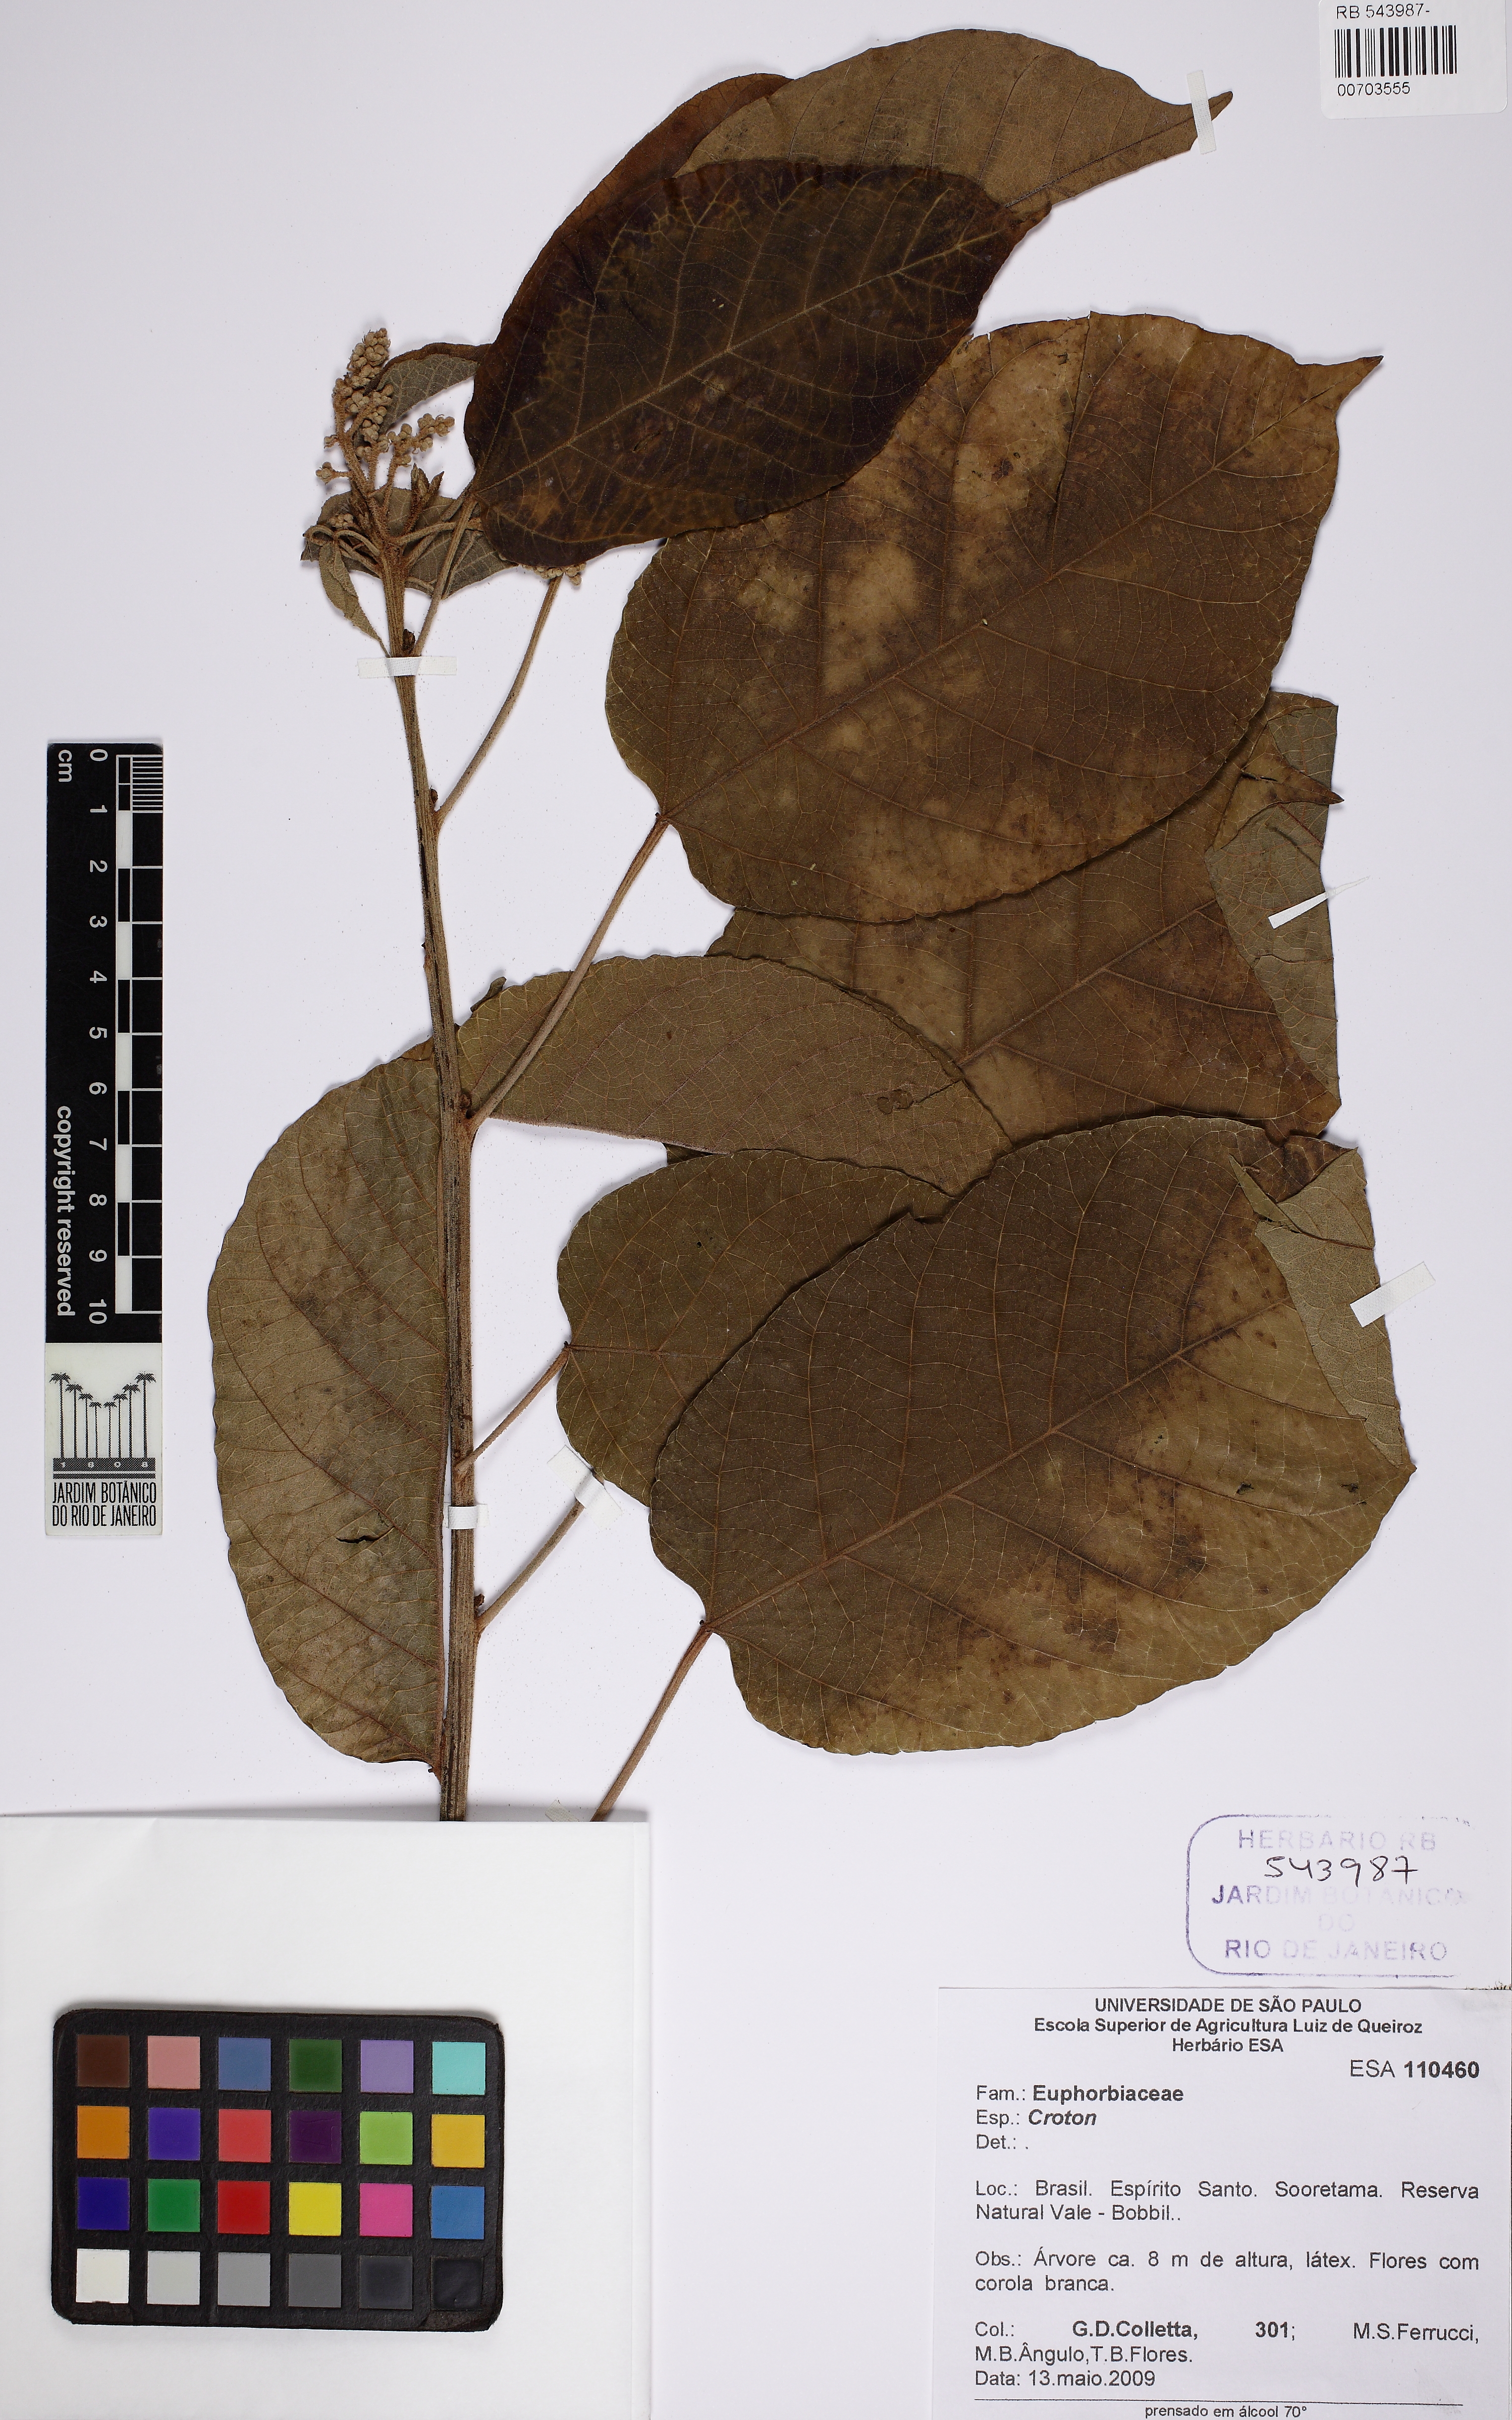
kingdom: Plantae
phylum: Tracheophyta
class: Magnoliopsida
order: Malpighiales
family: Euphorbiaceae
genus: Brasiliocroton
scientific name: Brasiliocroton mamoninha
